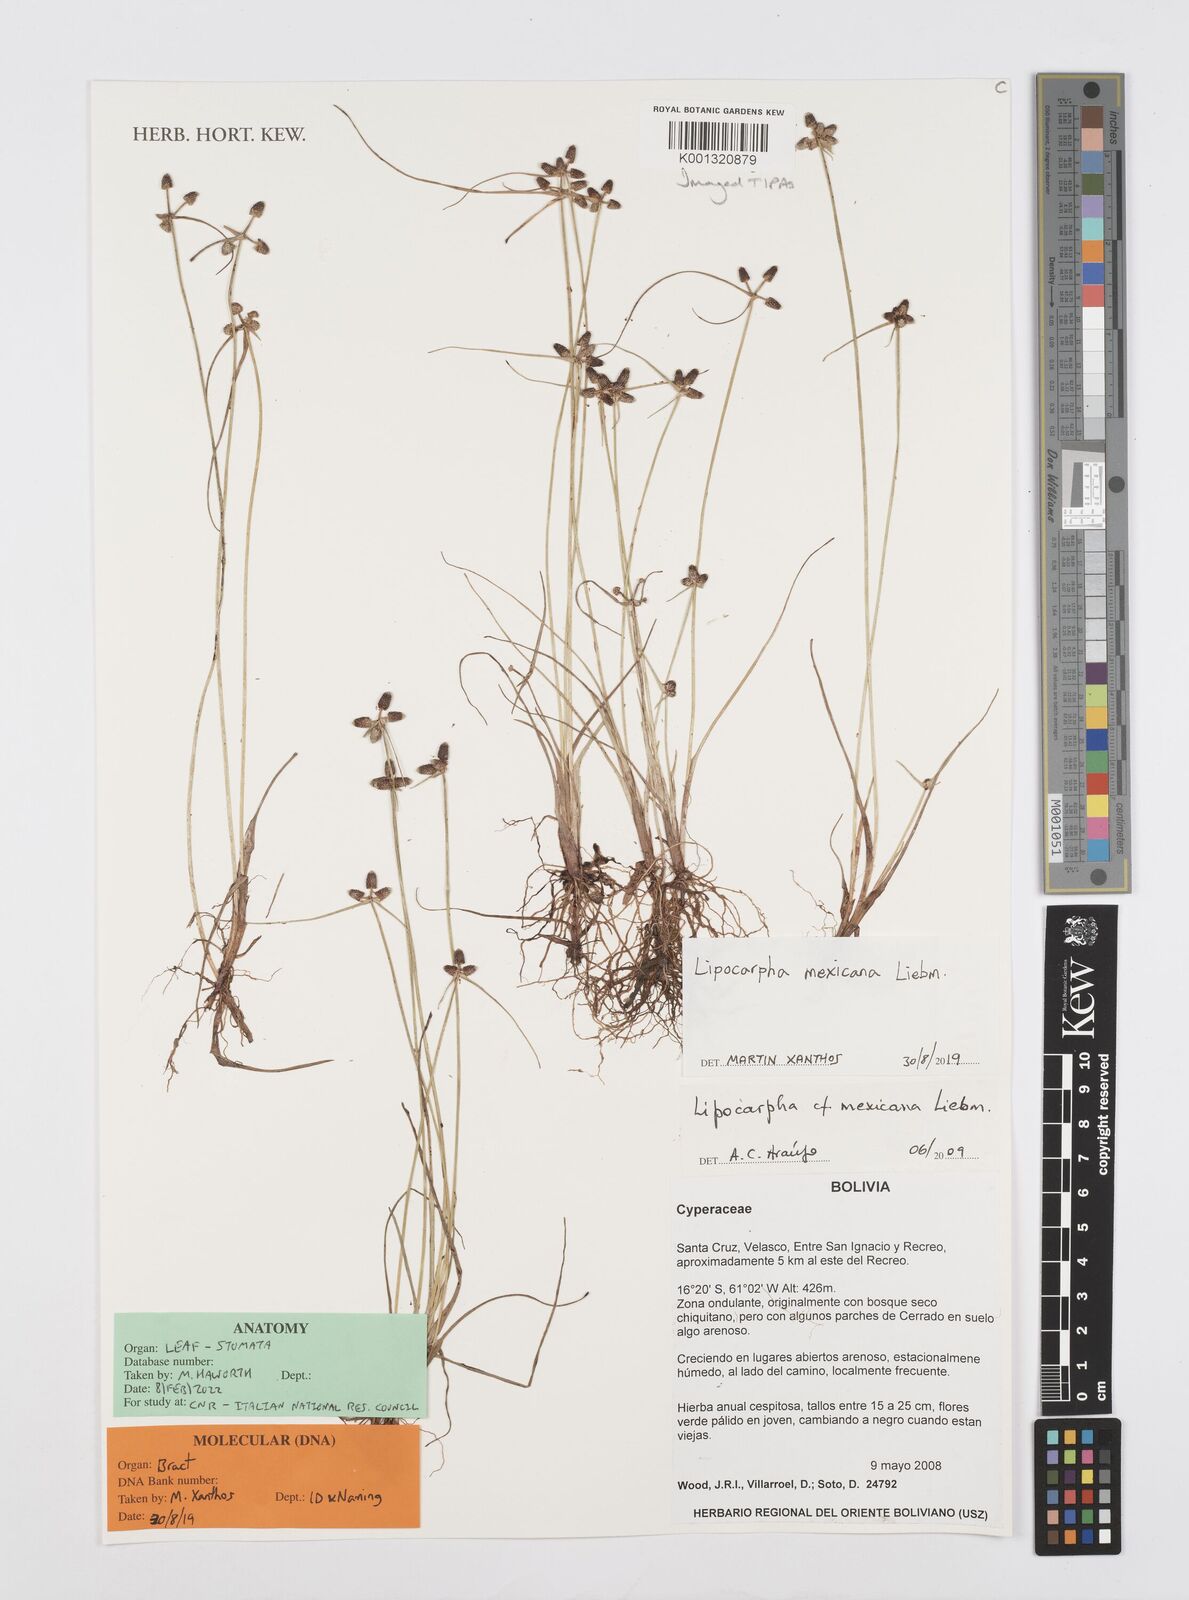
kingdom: Plantae
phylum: Tracheophyta
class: Liliopsida
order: Poales
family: Cyperaceae
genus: Cyperus
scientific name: Cyperus digitatus
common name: Finger flatsedge
